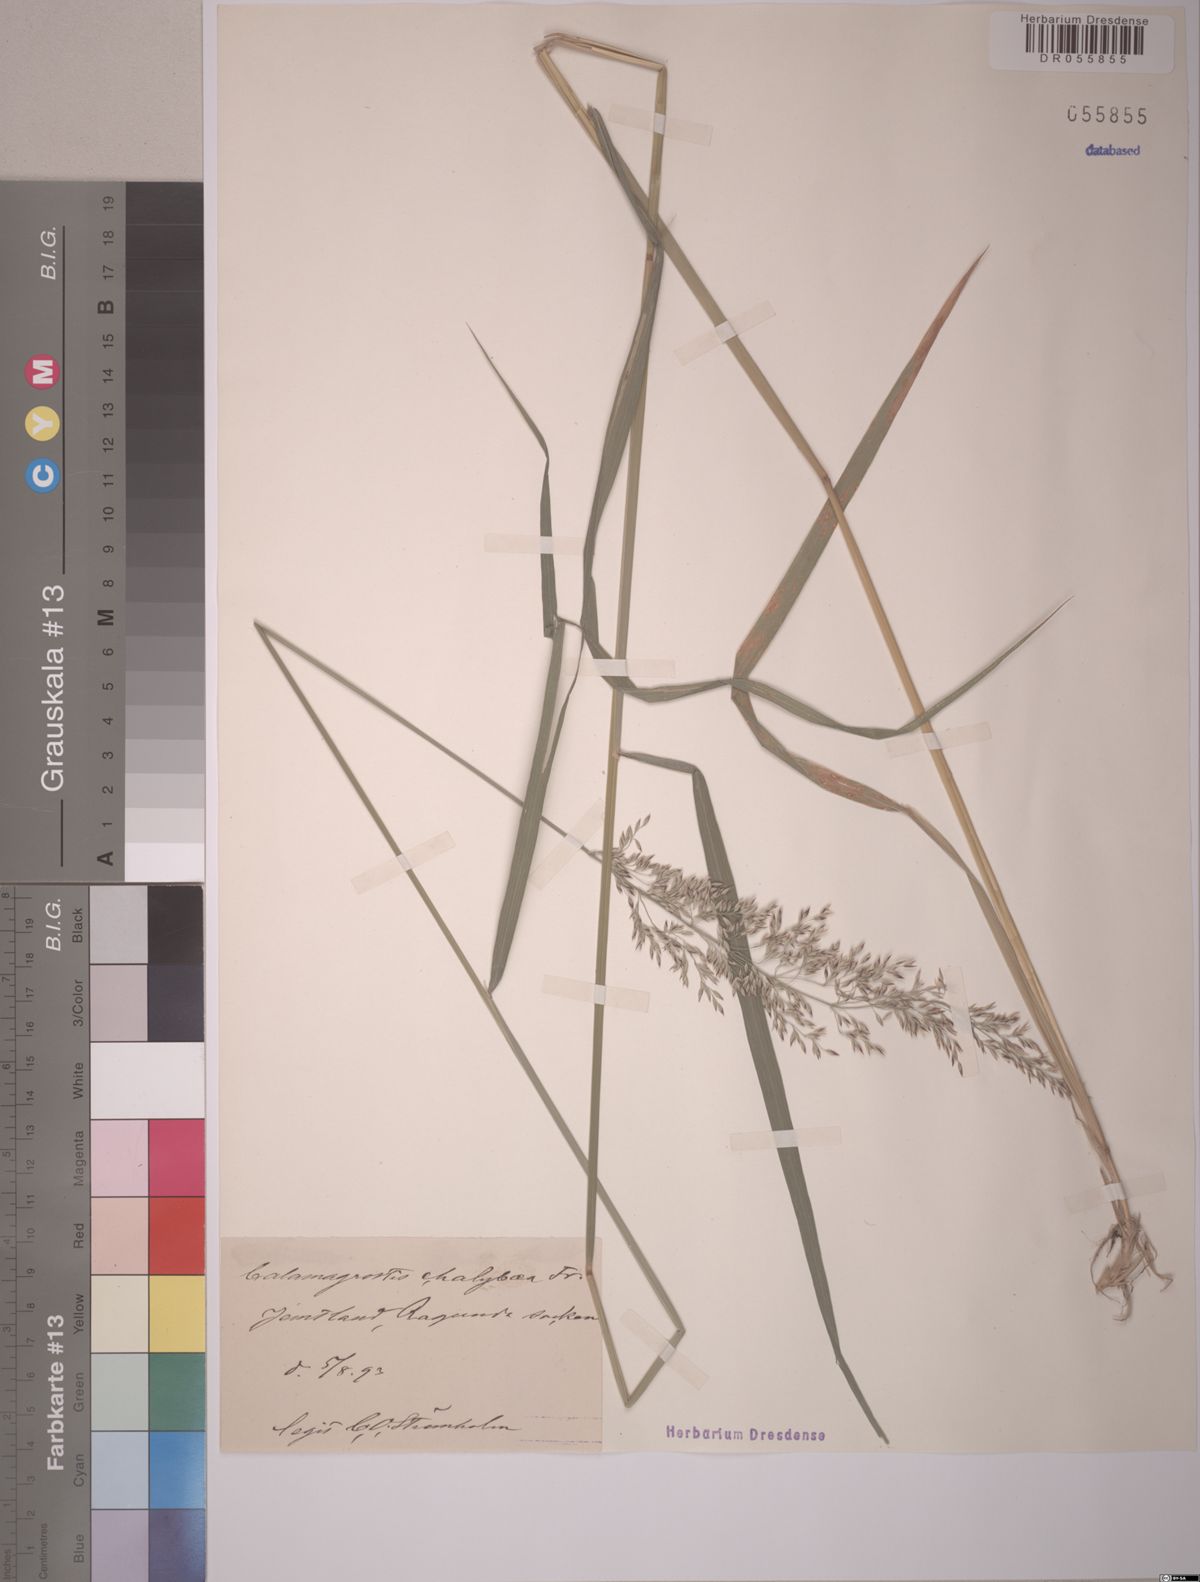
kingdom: Plantae
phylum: Tracheophyta
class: Liliopsida
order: Poales
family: Poaceae
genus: Calamagrostis
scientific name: Calamagrostis chalybaea
